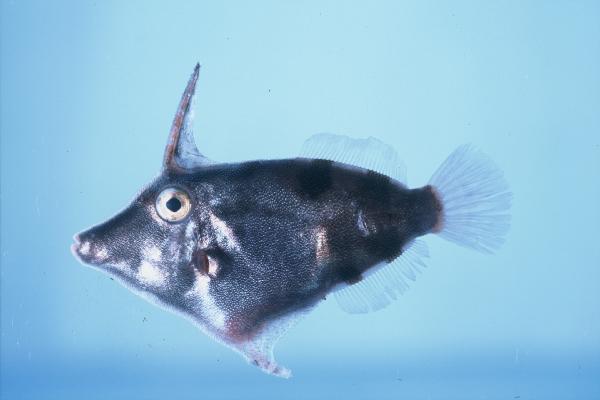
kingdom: Animalia
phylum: Chordata
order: Tetraodontiformes
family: Monacanthidae
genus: Pervagor
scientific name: Pervagor janthinosoma
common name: Blackbar filefish
